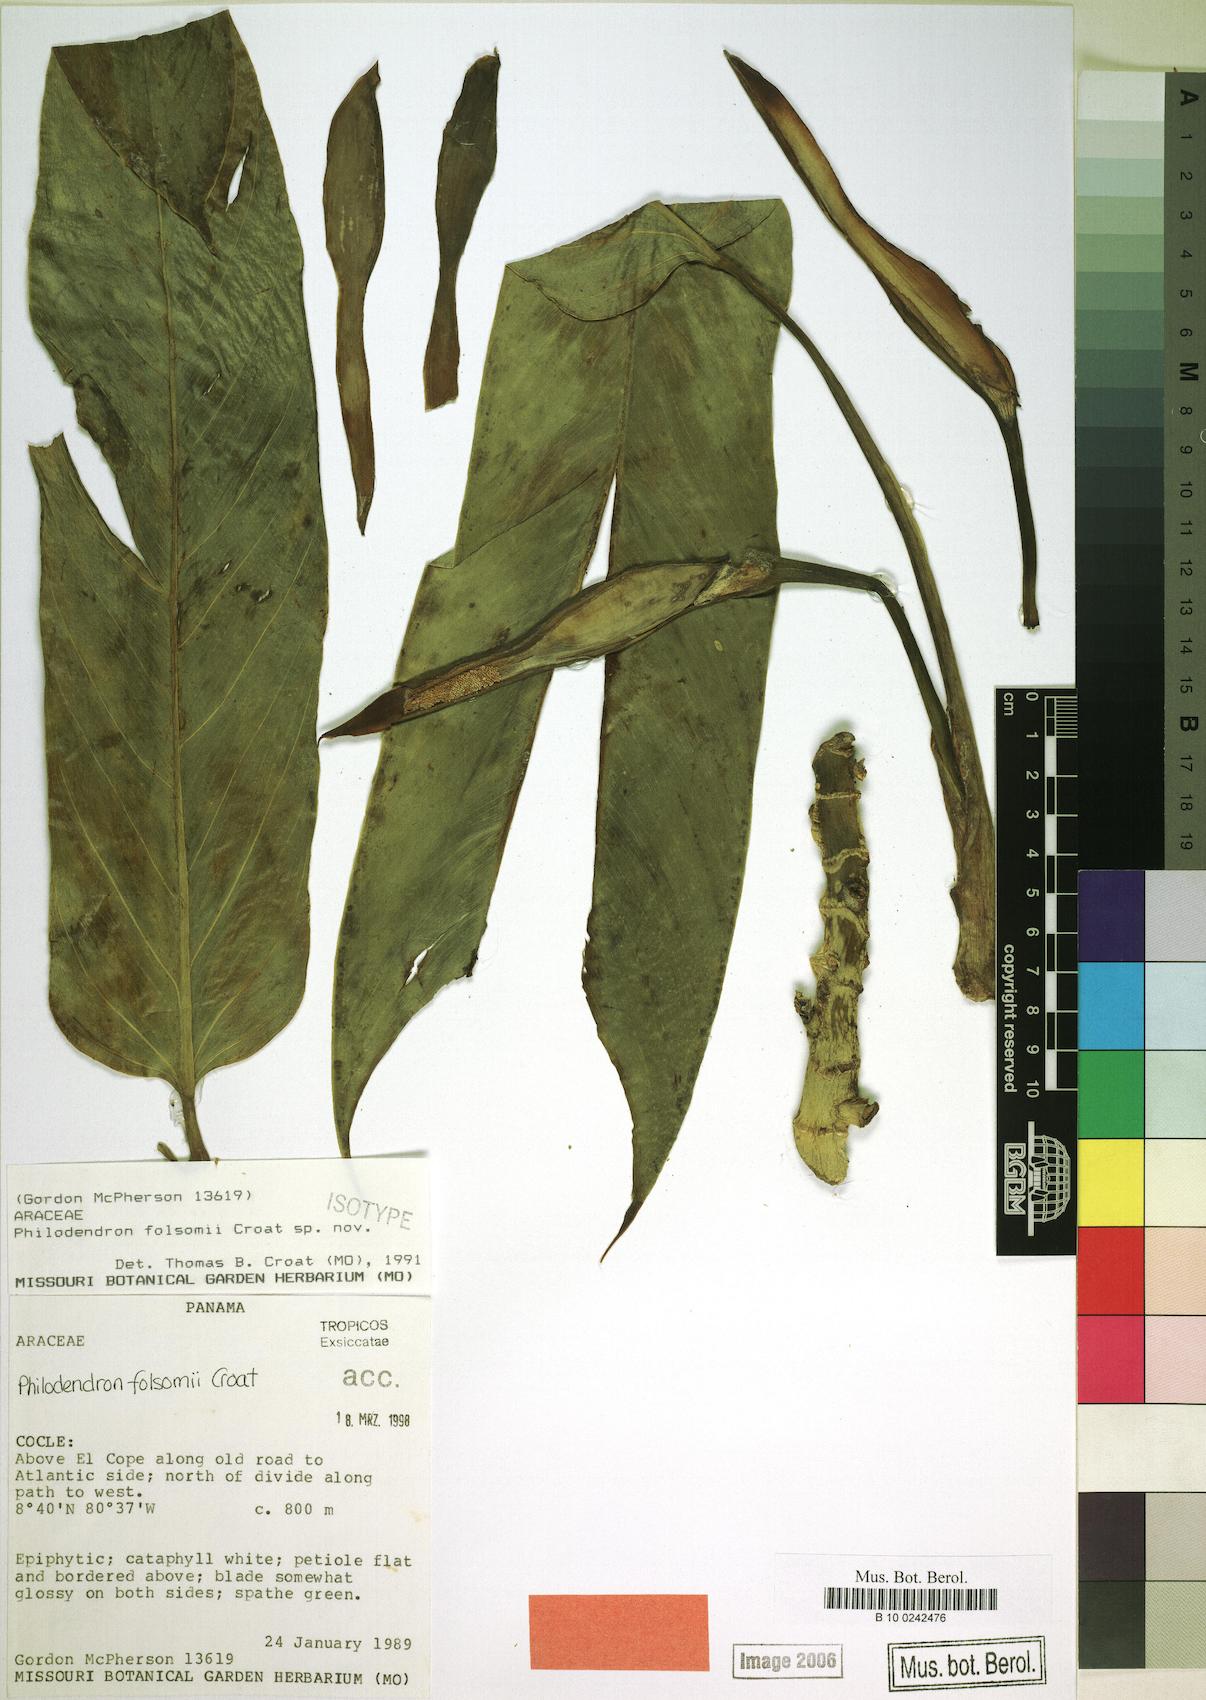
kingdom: Plantae
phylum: Tracheophyta
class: Liliopsida
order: Alismatales
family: Araceae
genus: Philodendron
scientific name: Philodendron folsomii
